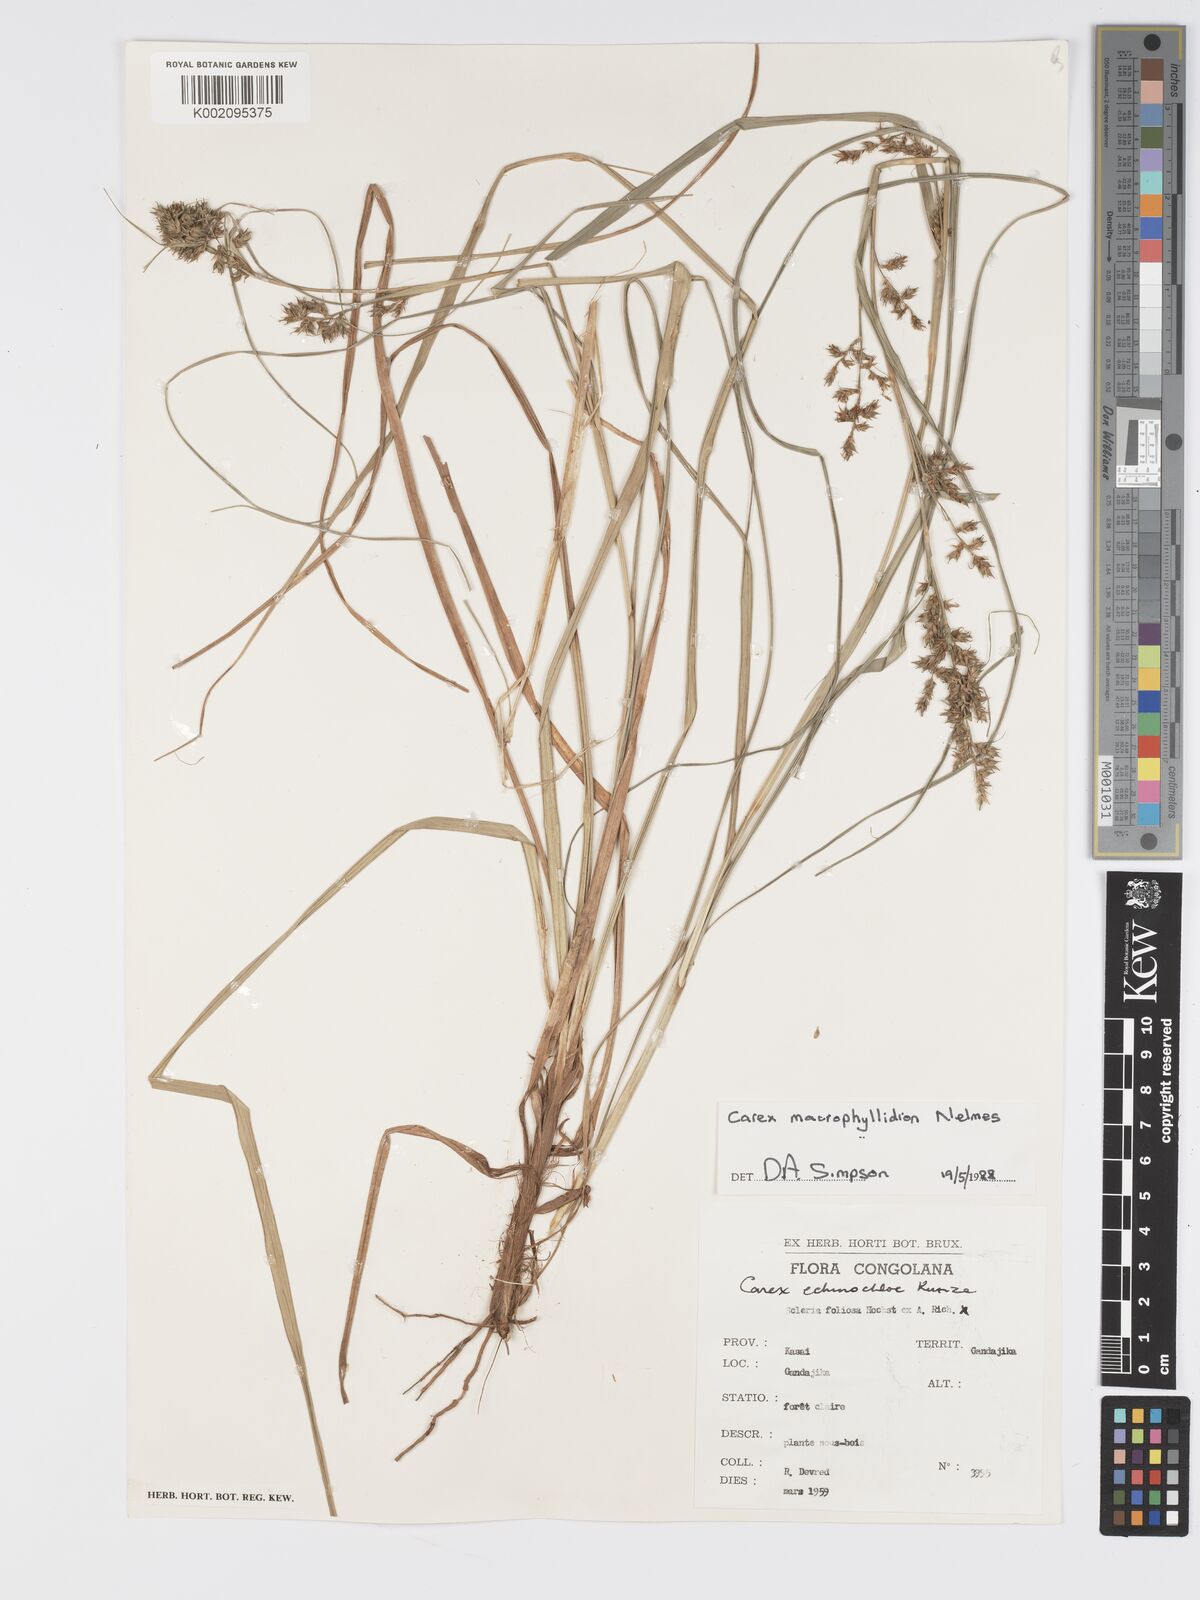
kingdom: Plantae
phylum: Tracheophyta
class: Liliopsida
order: Poales
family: Cyperaceae
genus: Carex
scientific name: Carex macrophyllidion
